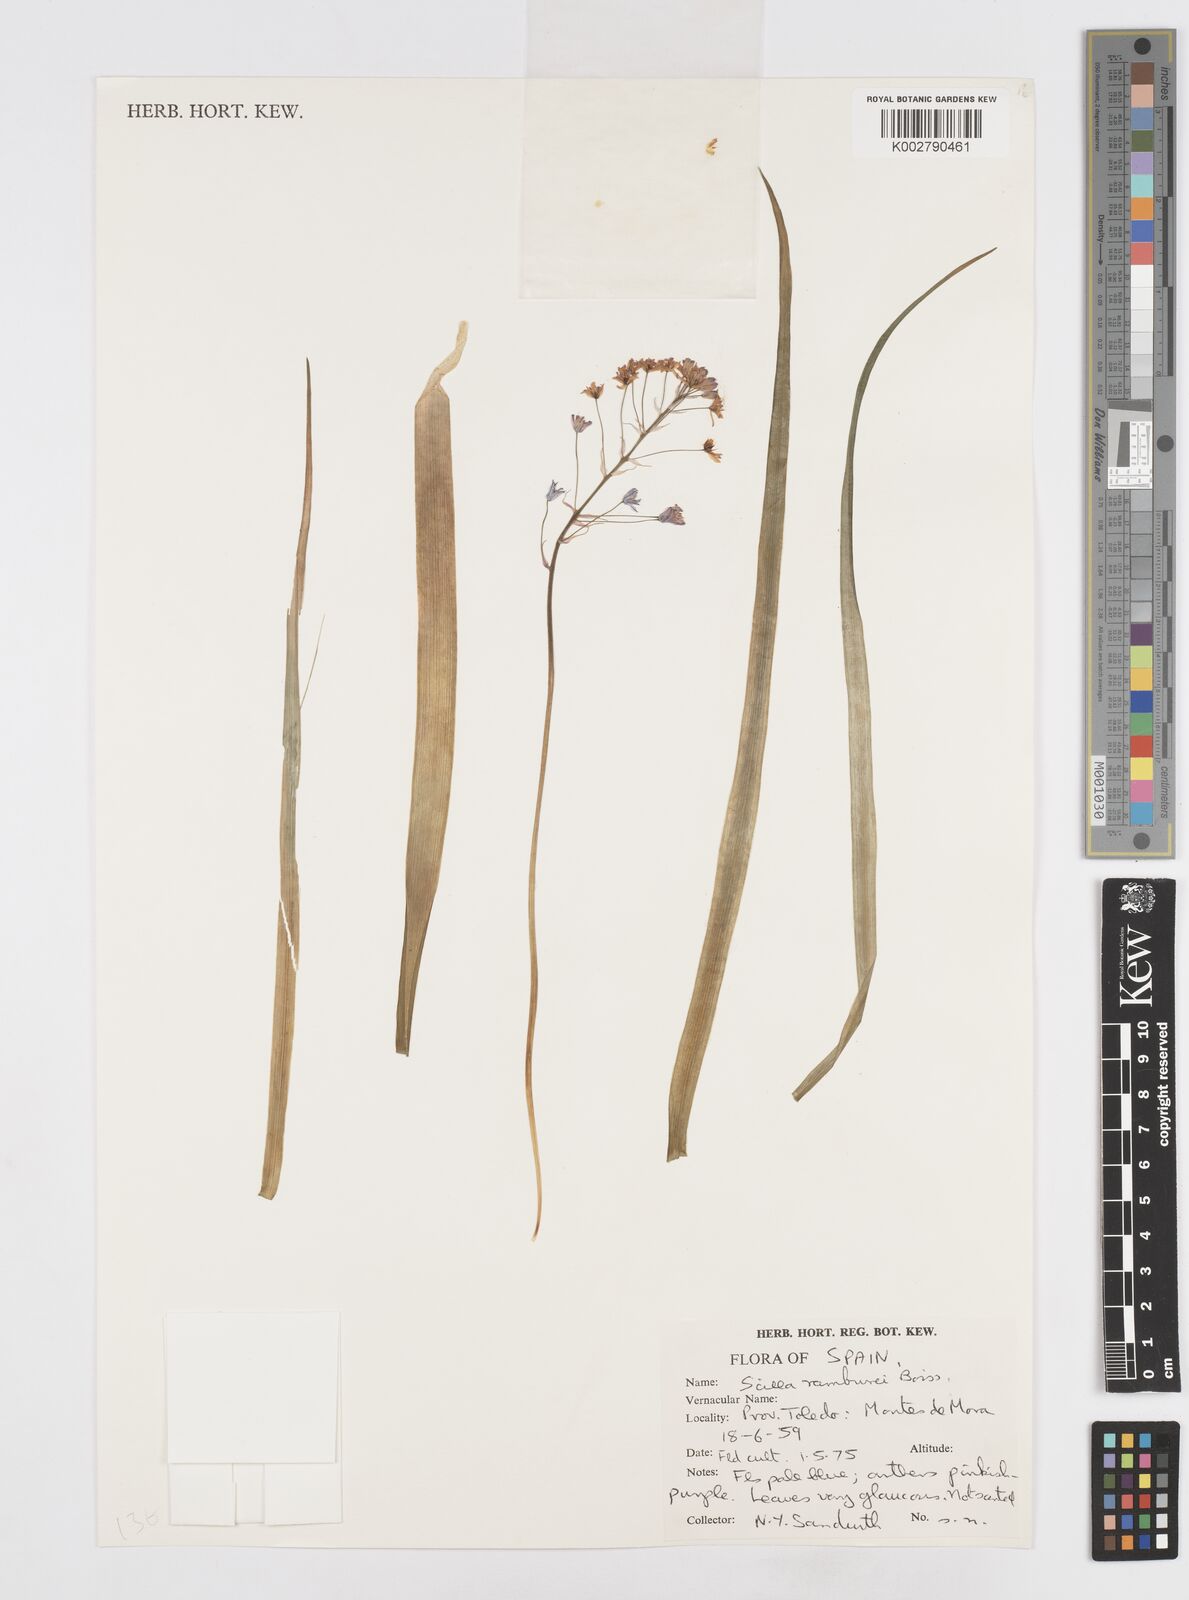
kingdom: Plantae
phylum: Tracheophyta
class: Liliopsida
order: Asparagales
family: Asparagaceae
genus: Scilla
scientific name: Scilla verna
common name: Spring squill
